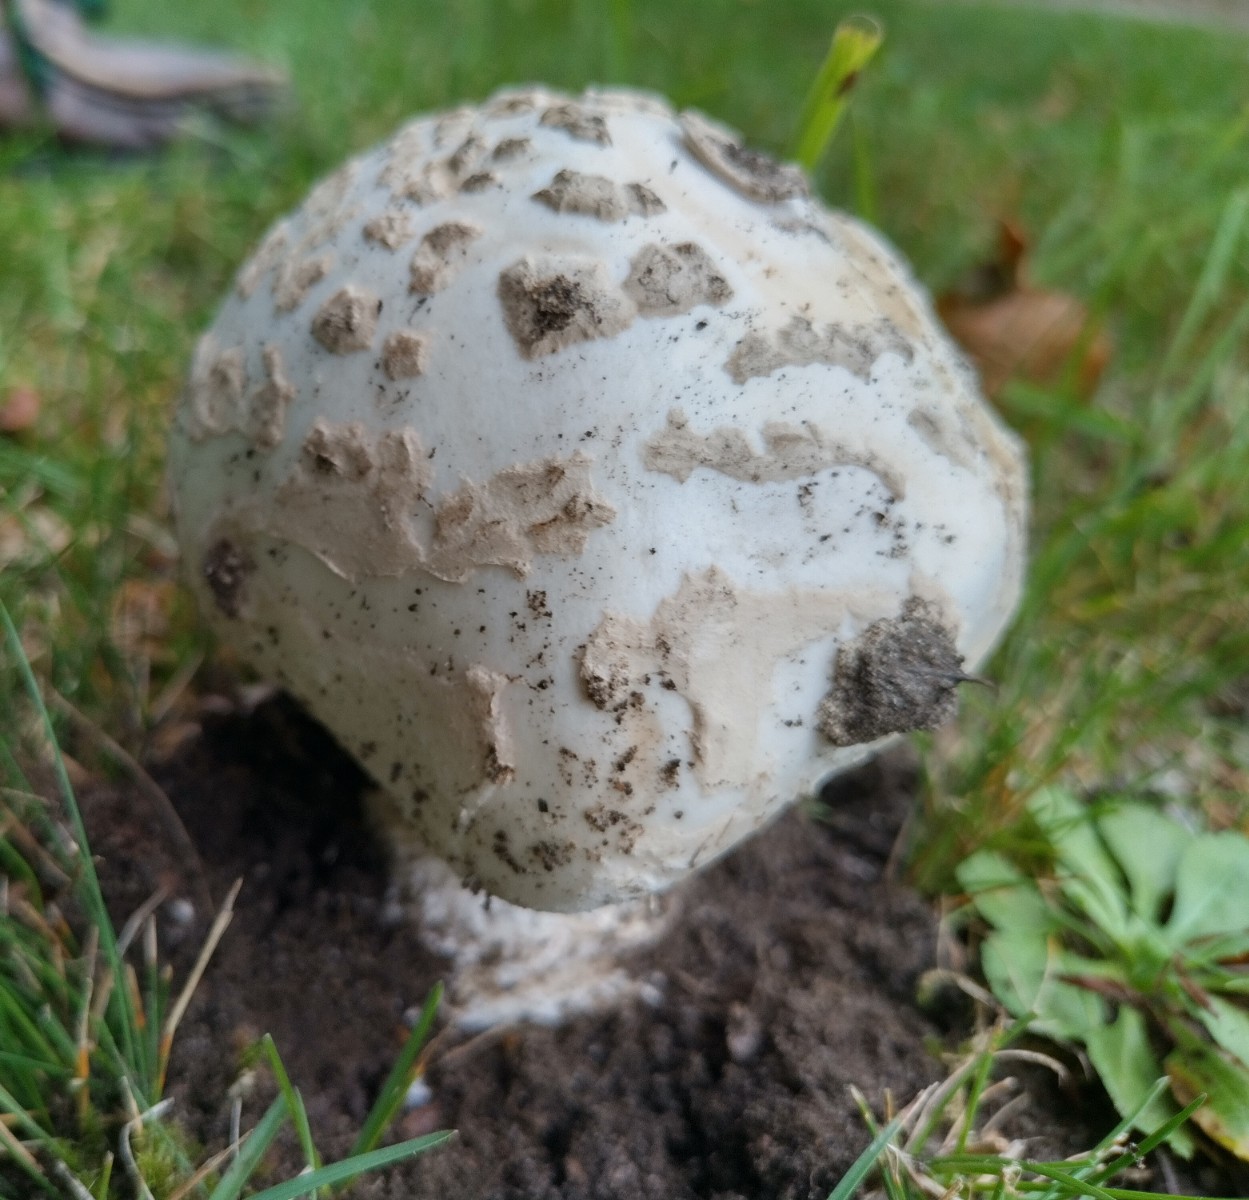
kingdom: Fungi
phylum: Basidiomycota
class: Agaricomycetes
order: Agaricales
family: Amanitaceae
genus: Amanita
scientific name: Amanita
